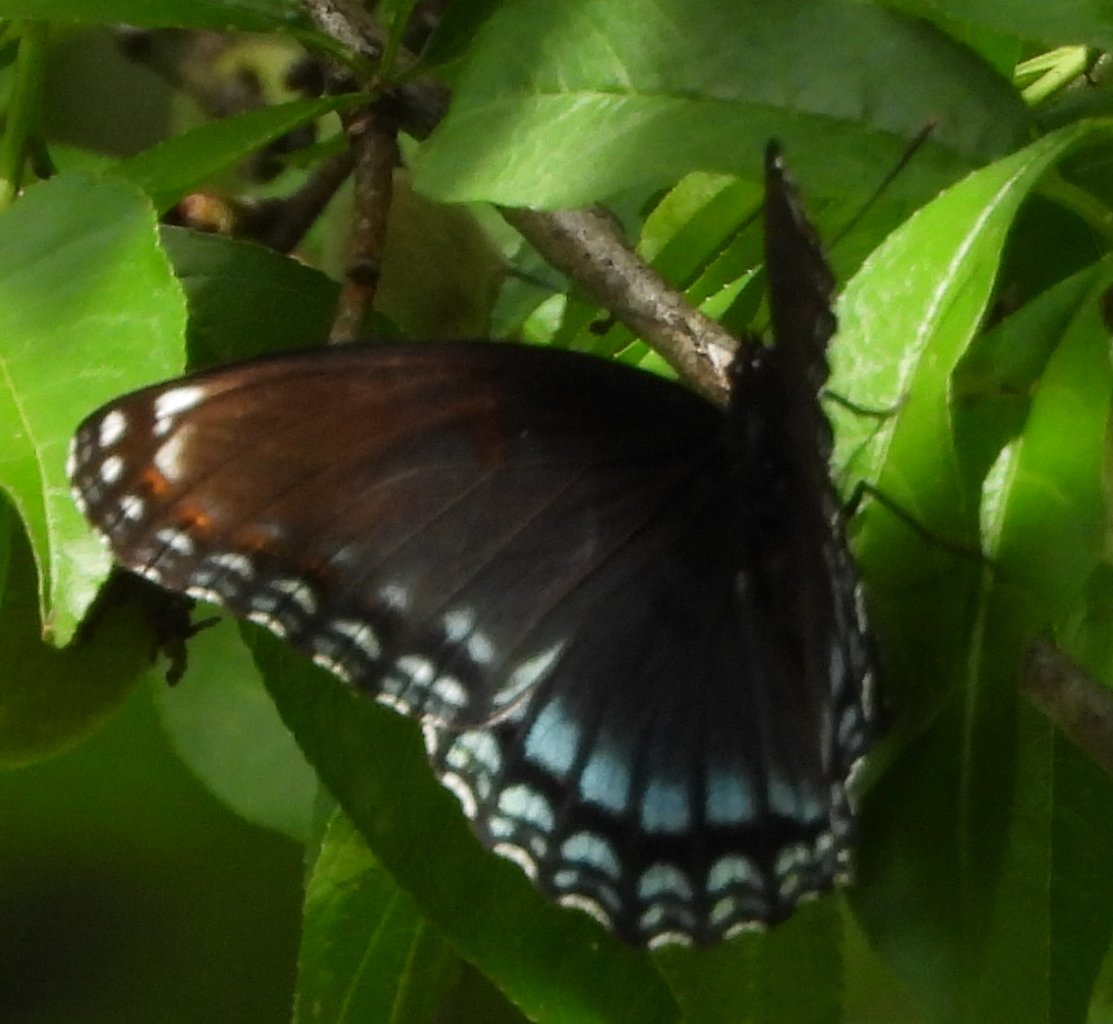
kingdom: Animalia
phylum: Arthropoda
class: Insecta
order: Lepidoptera
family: Nymphalidae
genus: Limenitis
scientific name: Limenitis astyanax
